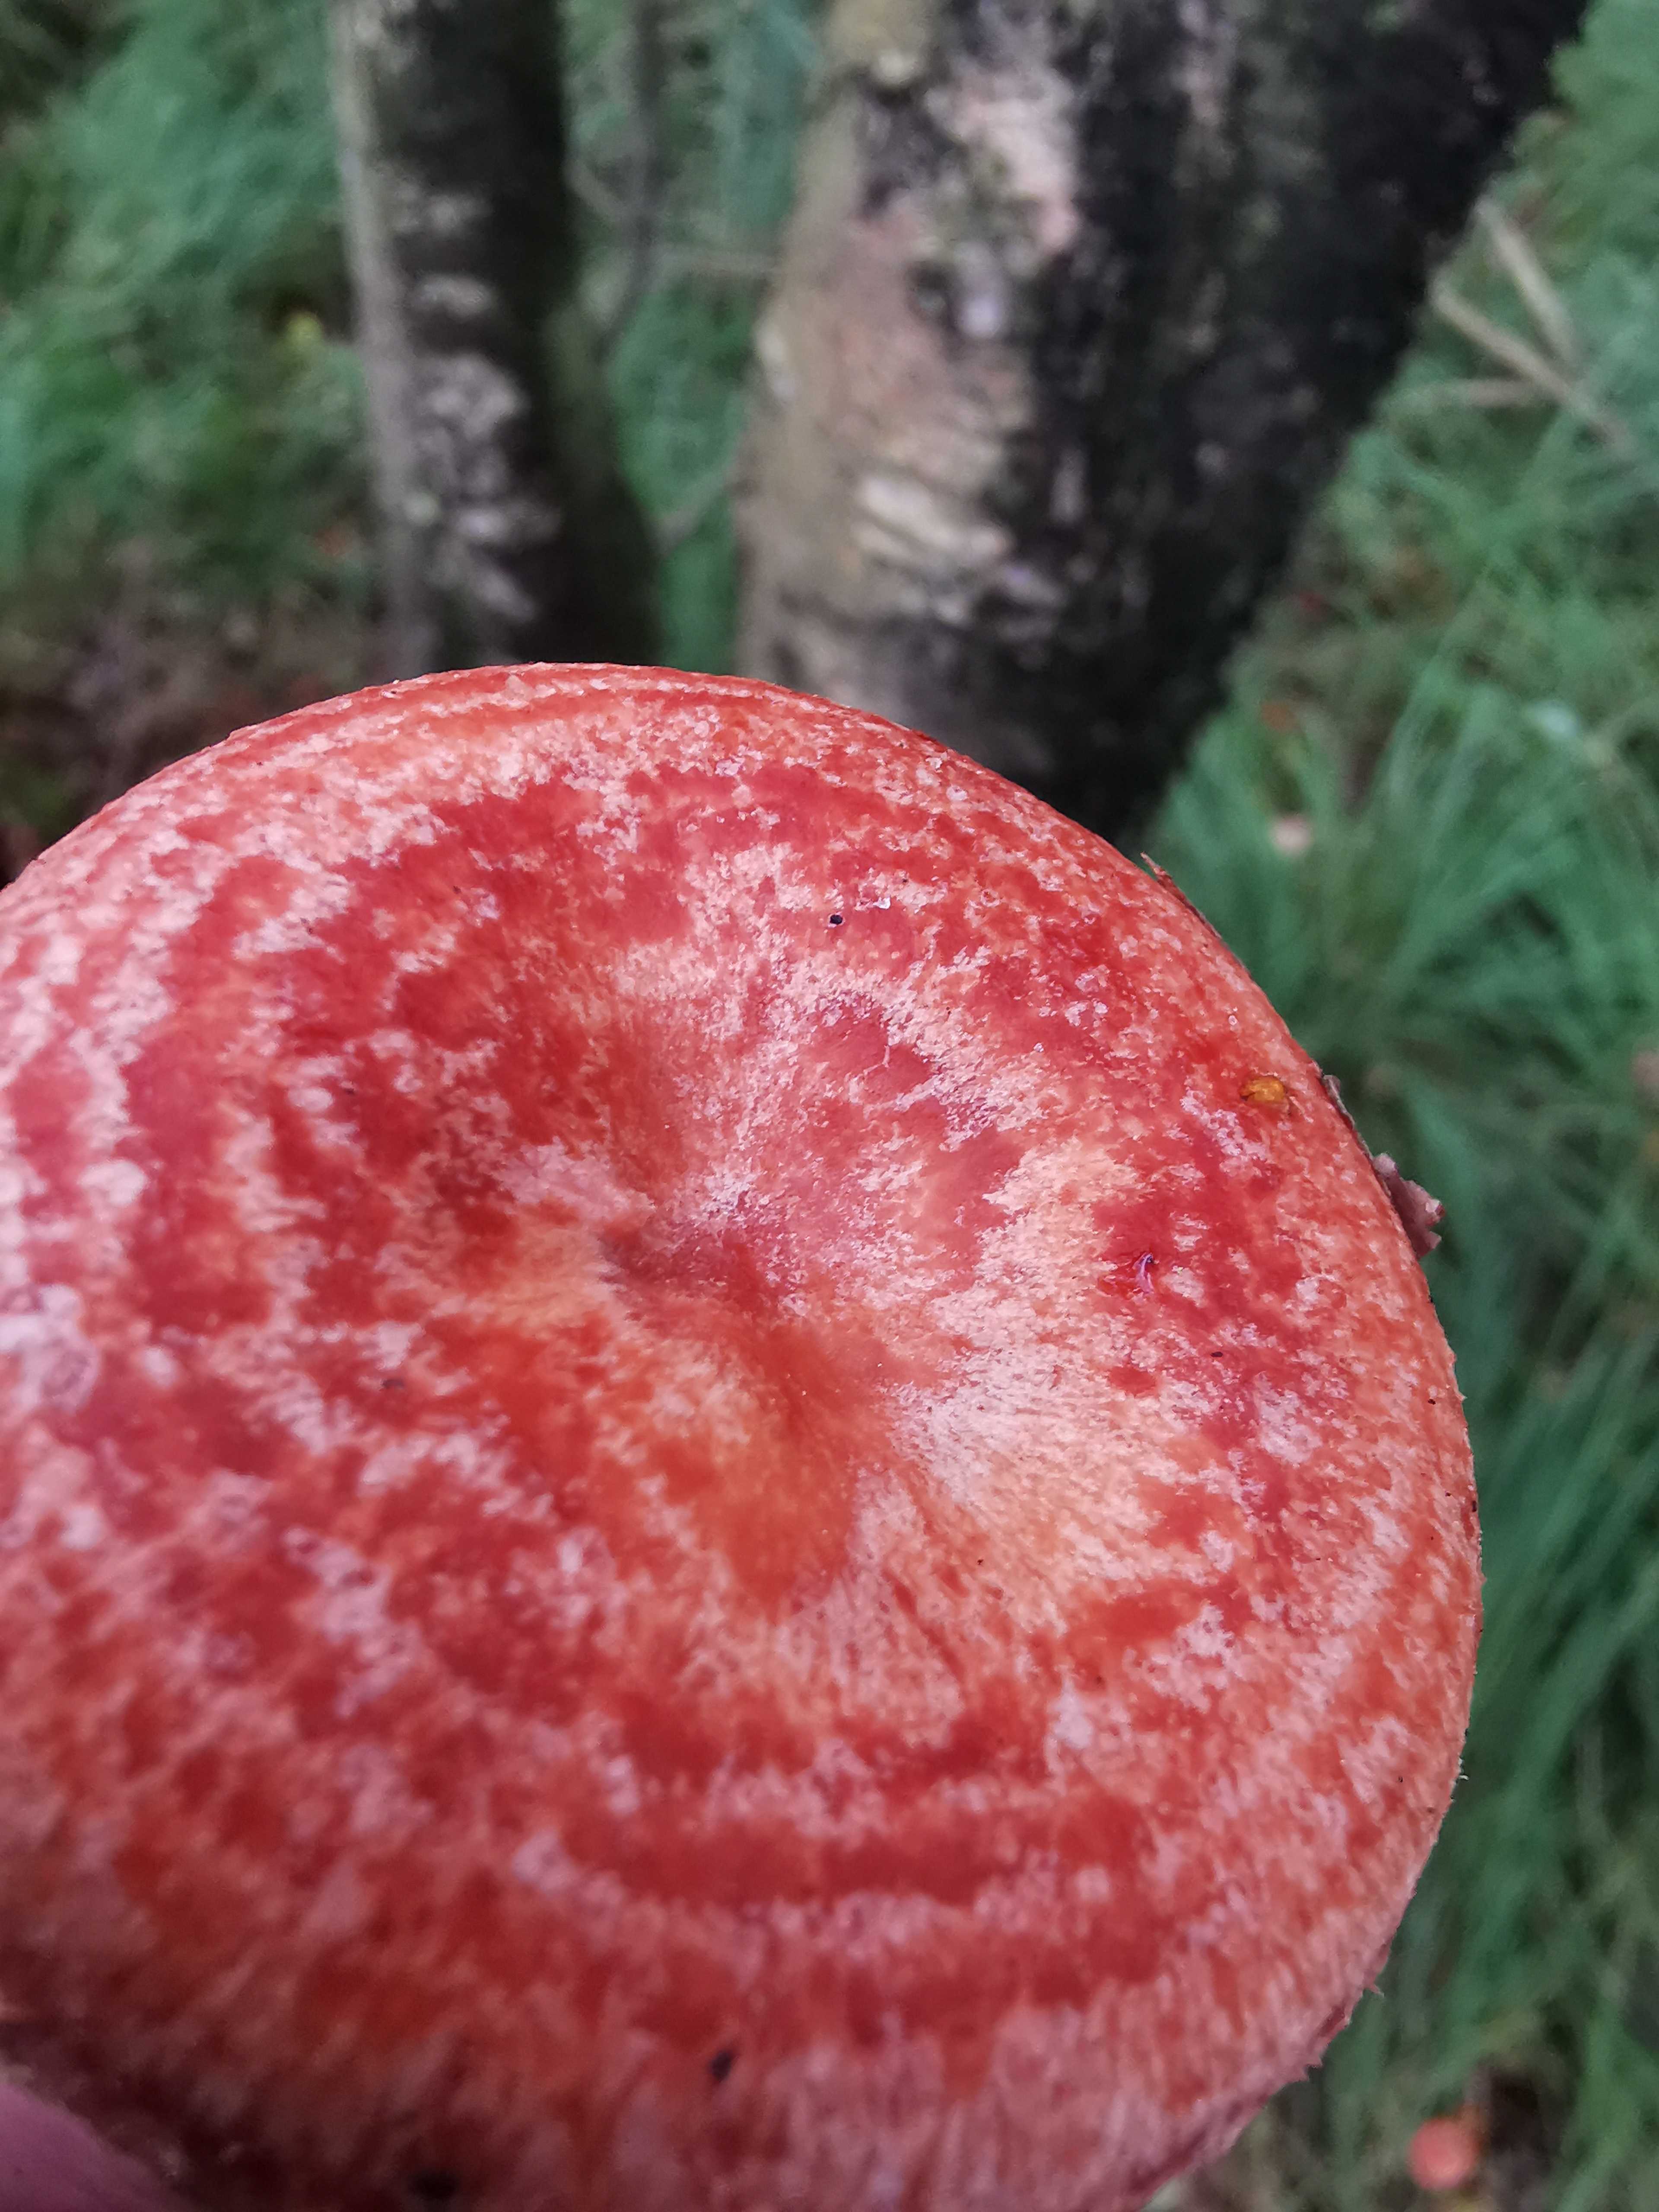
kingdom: Fungi
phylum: Basidiomycota
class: Agaricomycetes
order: Russulales
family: Russulaceae
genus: Lactarius
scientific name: Lactarius torminosus
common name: skægget mælkehat
